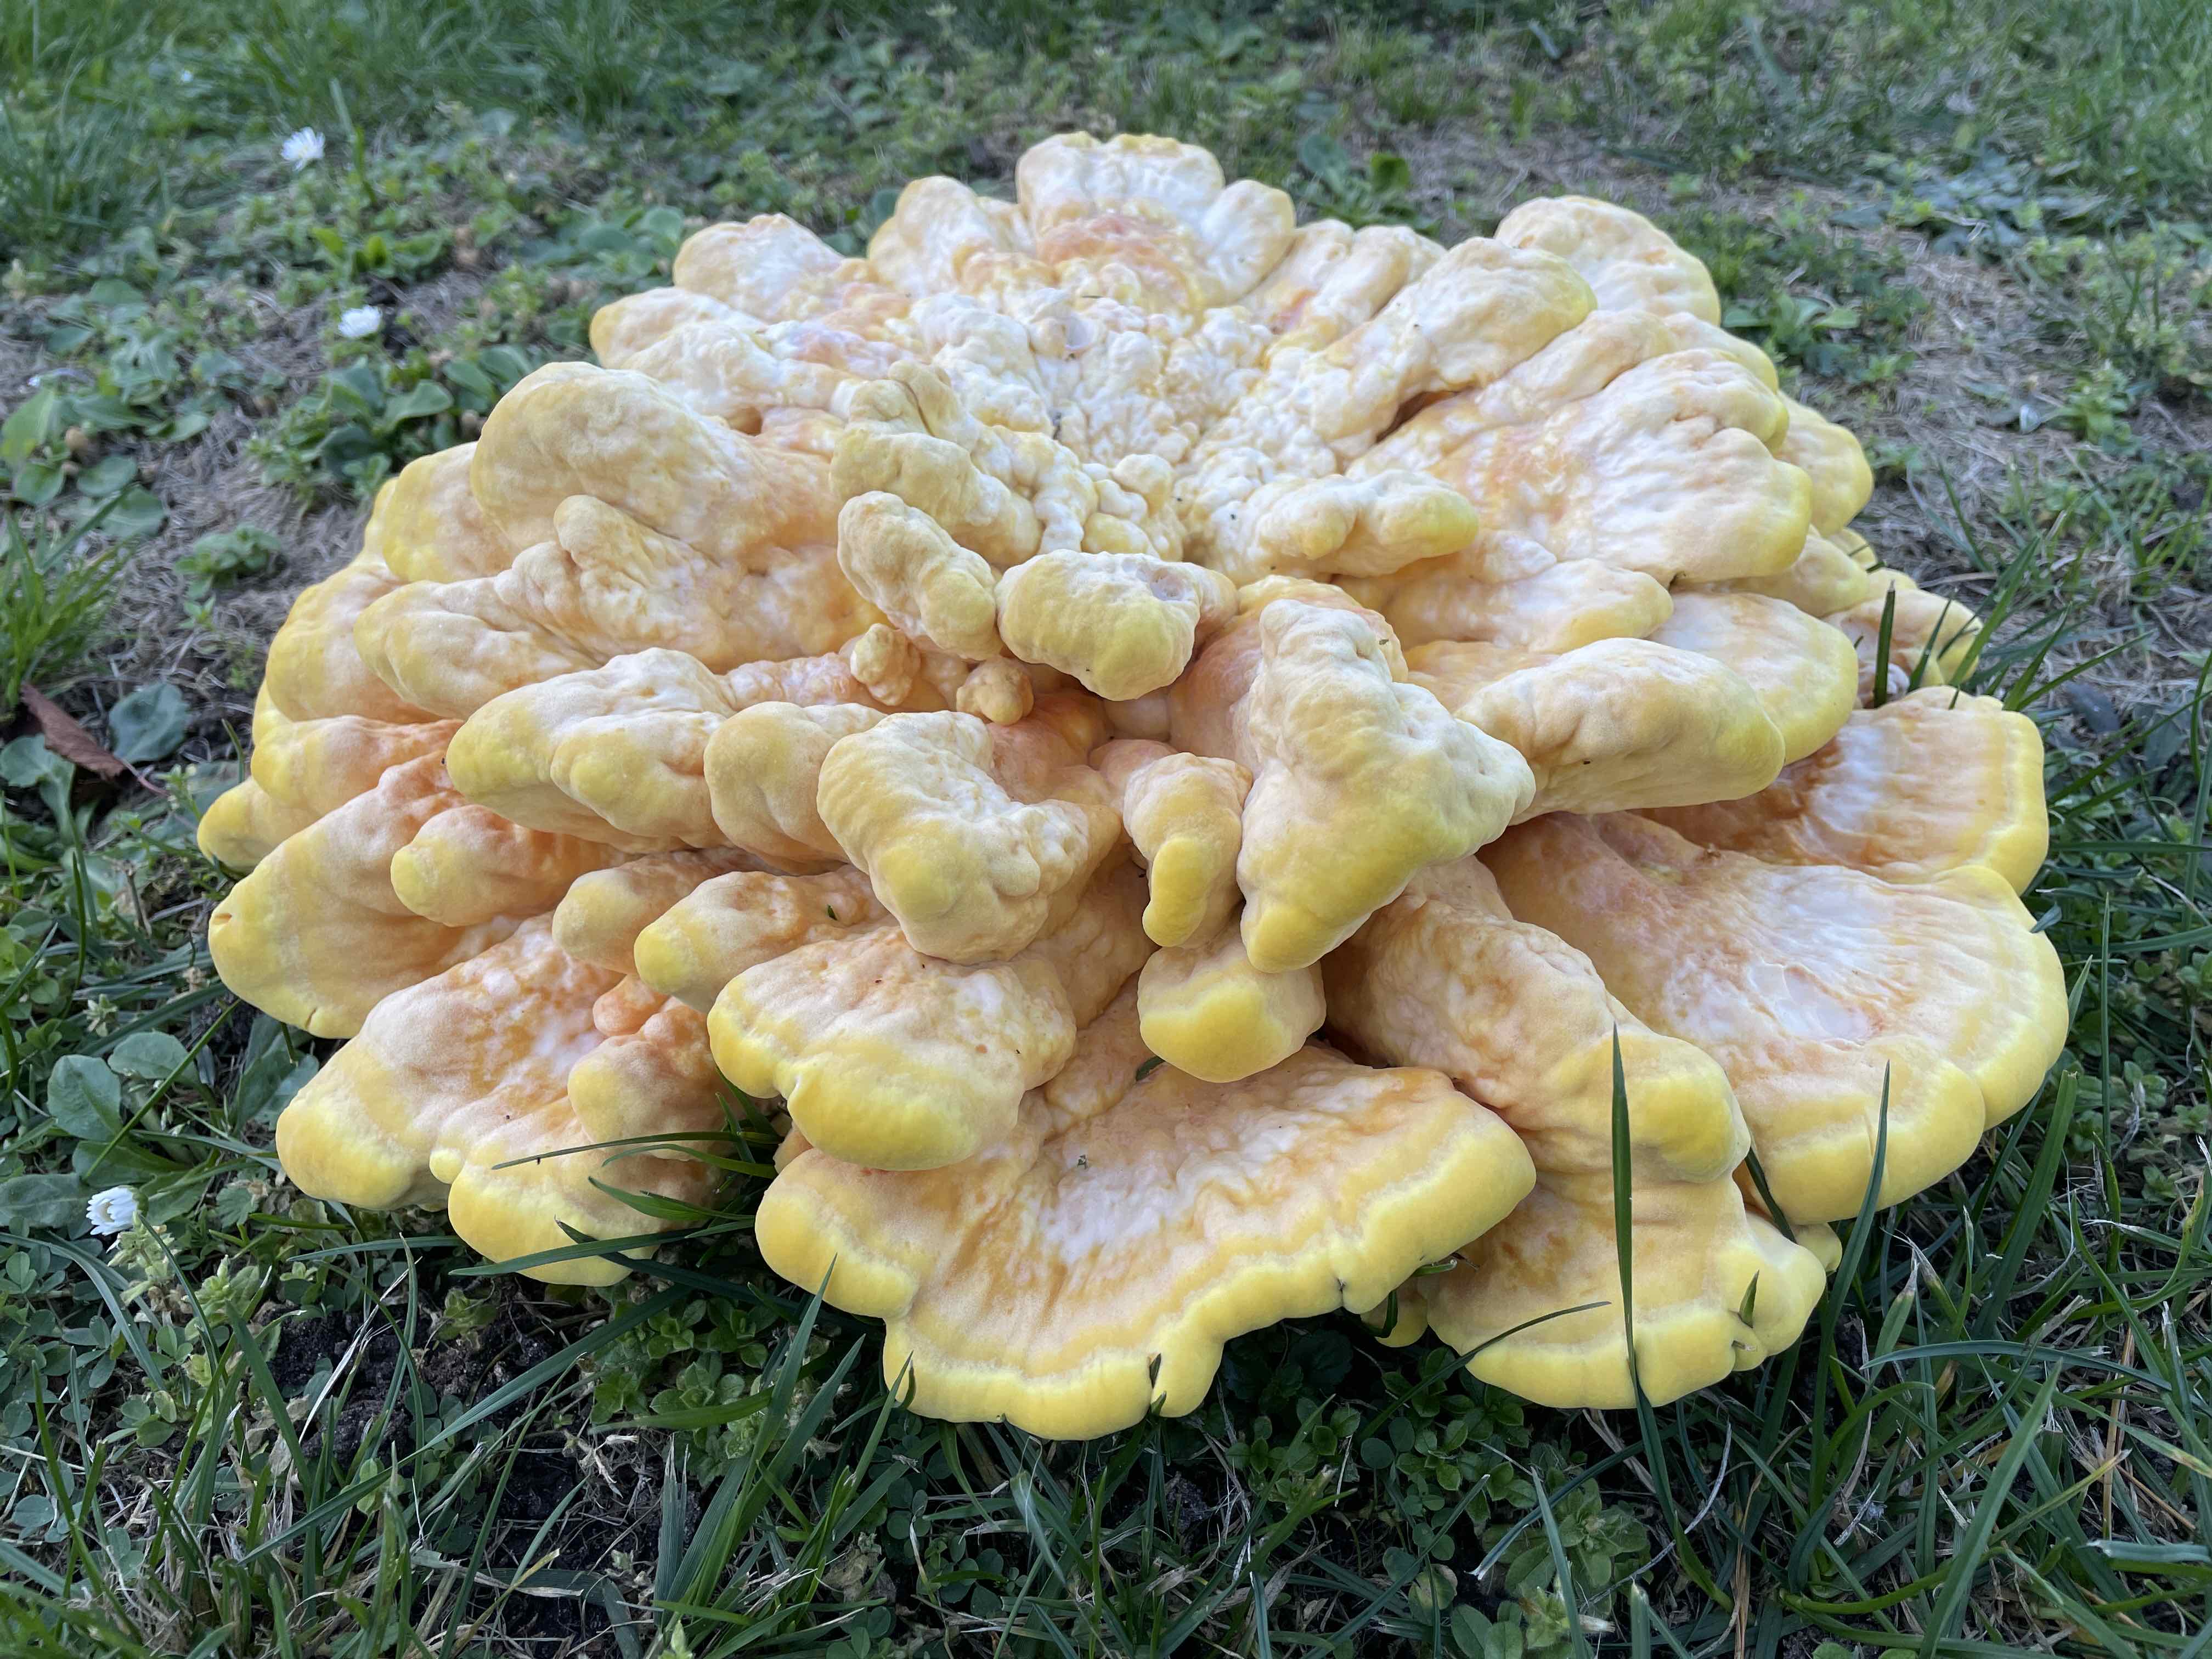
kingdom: Fungi
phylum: Basidiomycota
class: Agaricomycetes
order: Polyporales
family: Laetiporaceae
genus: Laetiporus
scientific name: Laetiporus sulphureus
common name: svovlporesvamp
